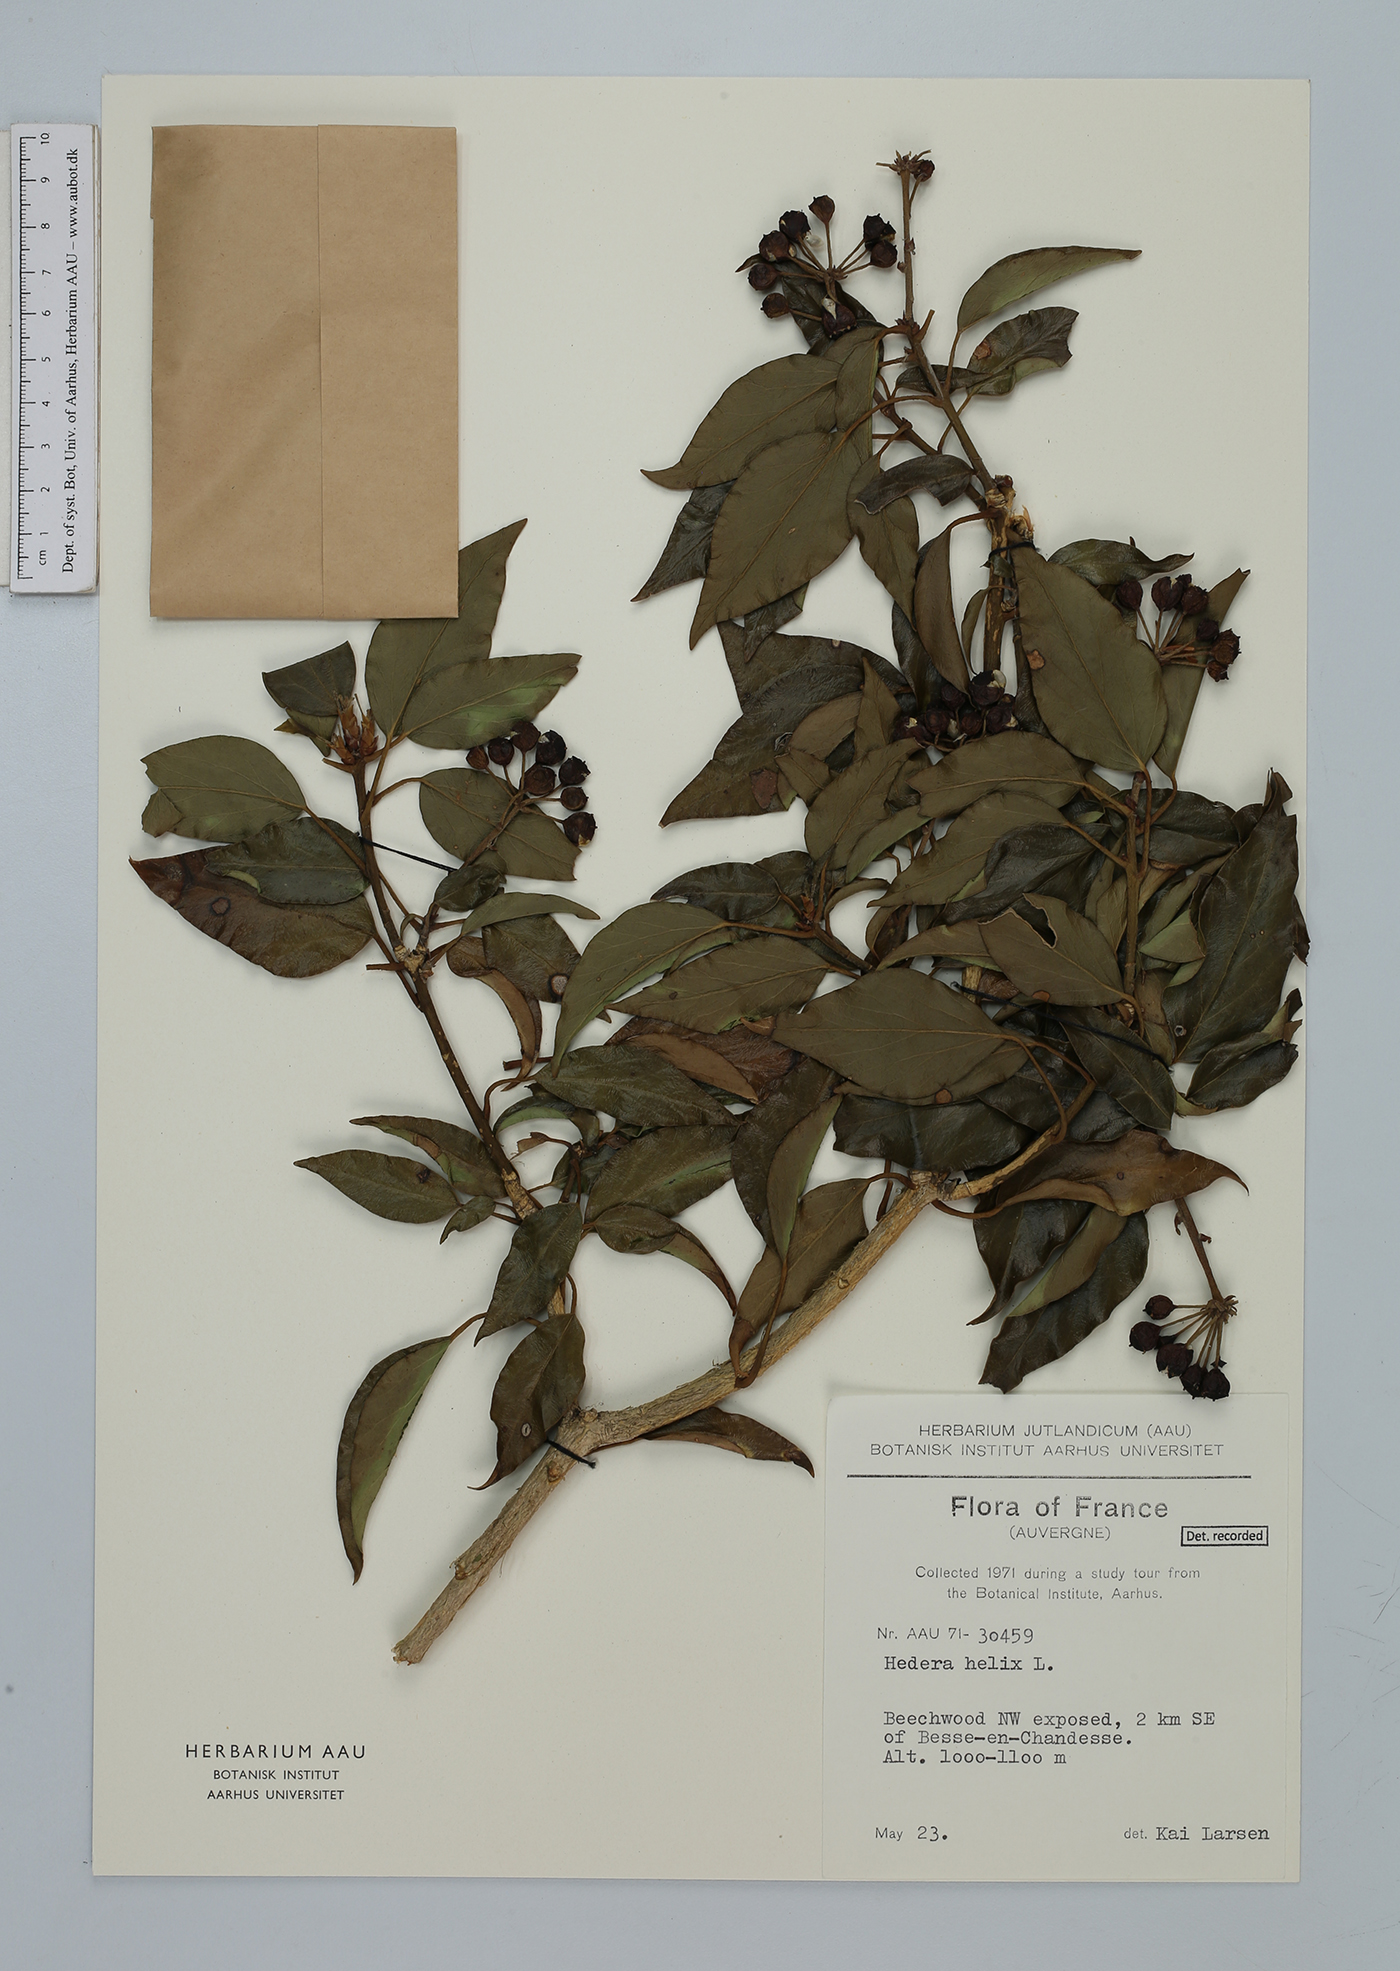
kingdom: Plantae
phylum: Tracheophyta
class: Magnoliopsida
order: Apiales
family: Araliaceae
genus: Hedera
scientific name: Hedera helix
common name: Ivy
